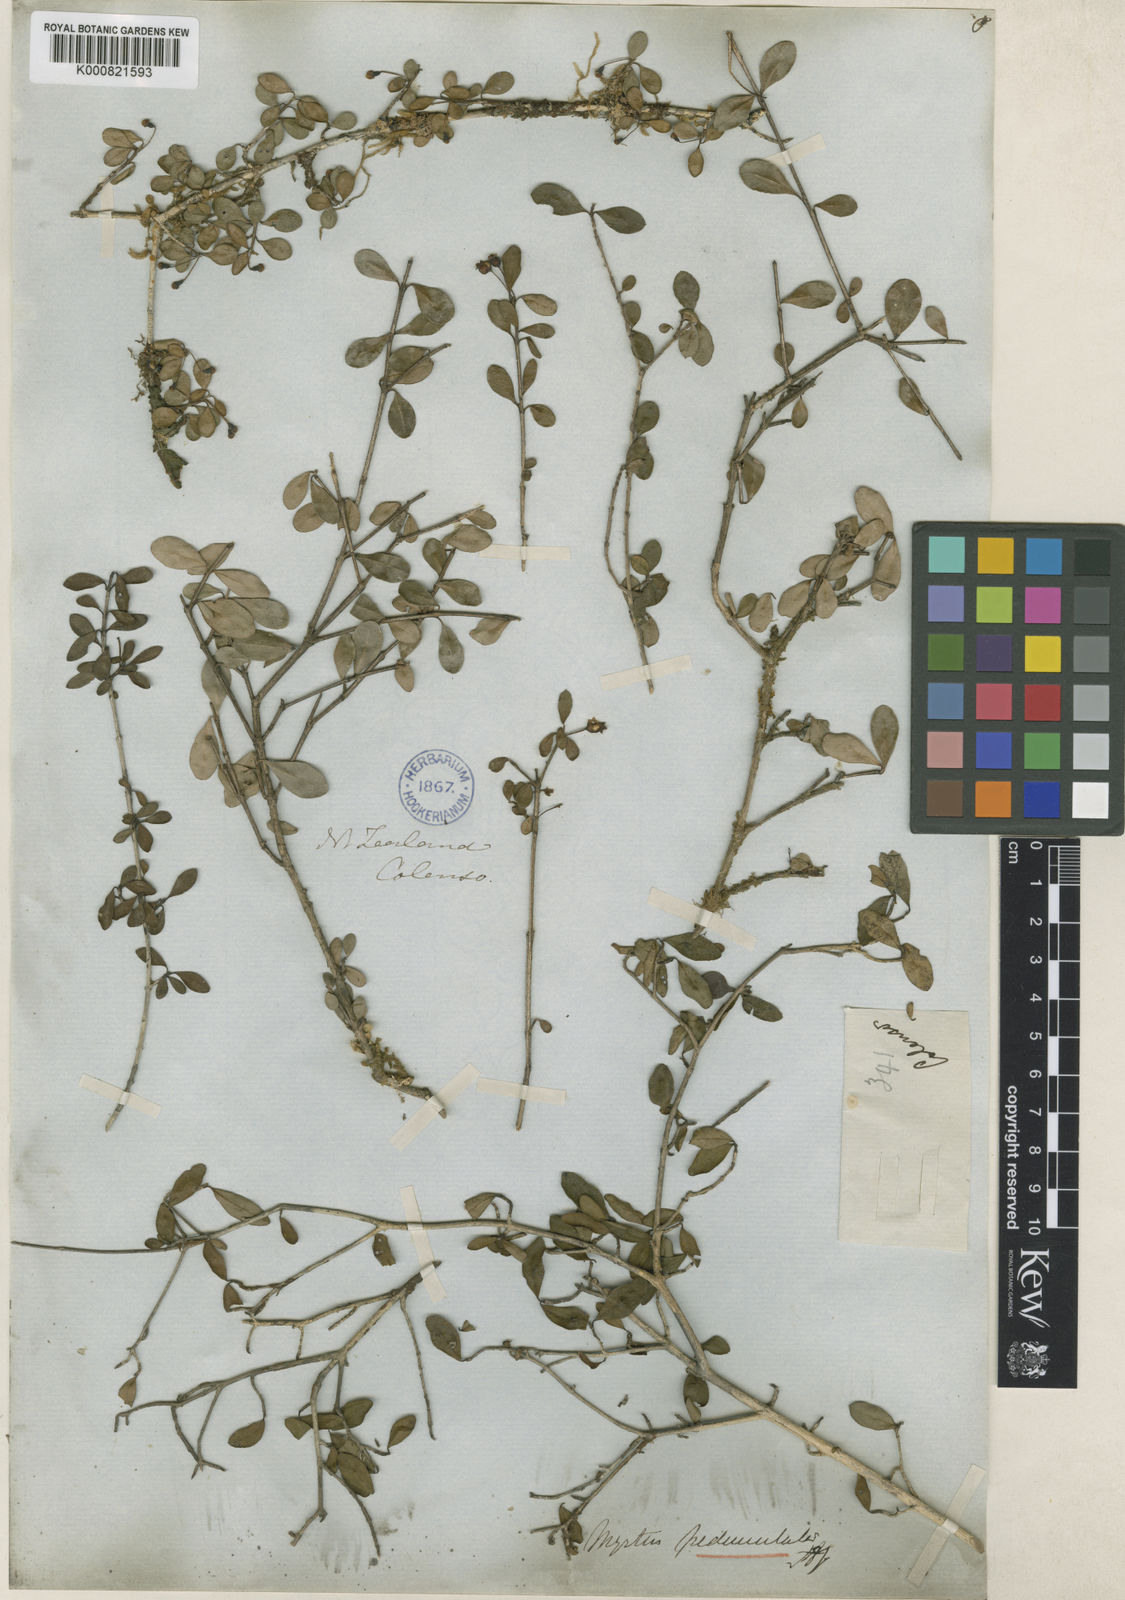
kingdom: Plantae
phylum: Tracheophyta
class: Magnoliopsida
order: Myrtales
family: Myrtaceae
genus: Neomyrtus
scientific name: Neomyrtus pedunculata
